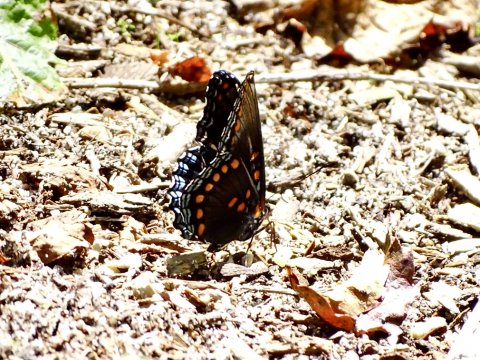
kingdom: Animalia
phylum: Arthropoda
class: Insecta
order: Lepidoptera
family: Nymphalidae
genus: Limenitis
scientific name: Limenitis arthemis
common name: Red-spotted Admiral
